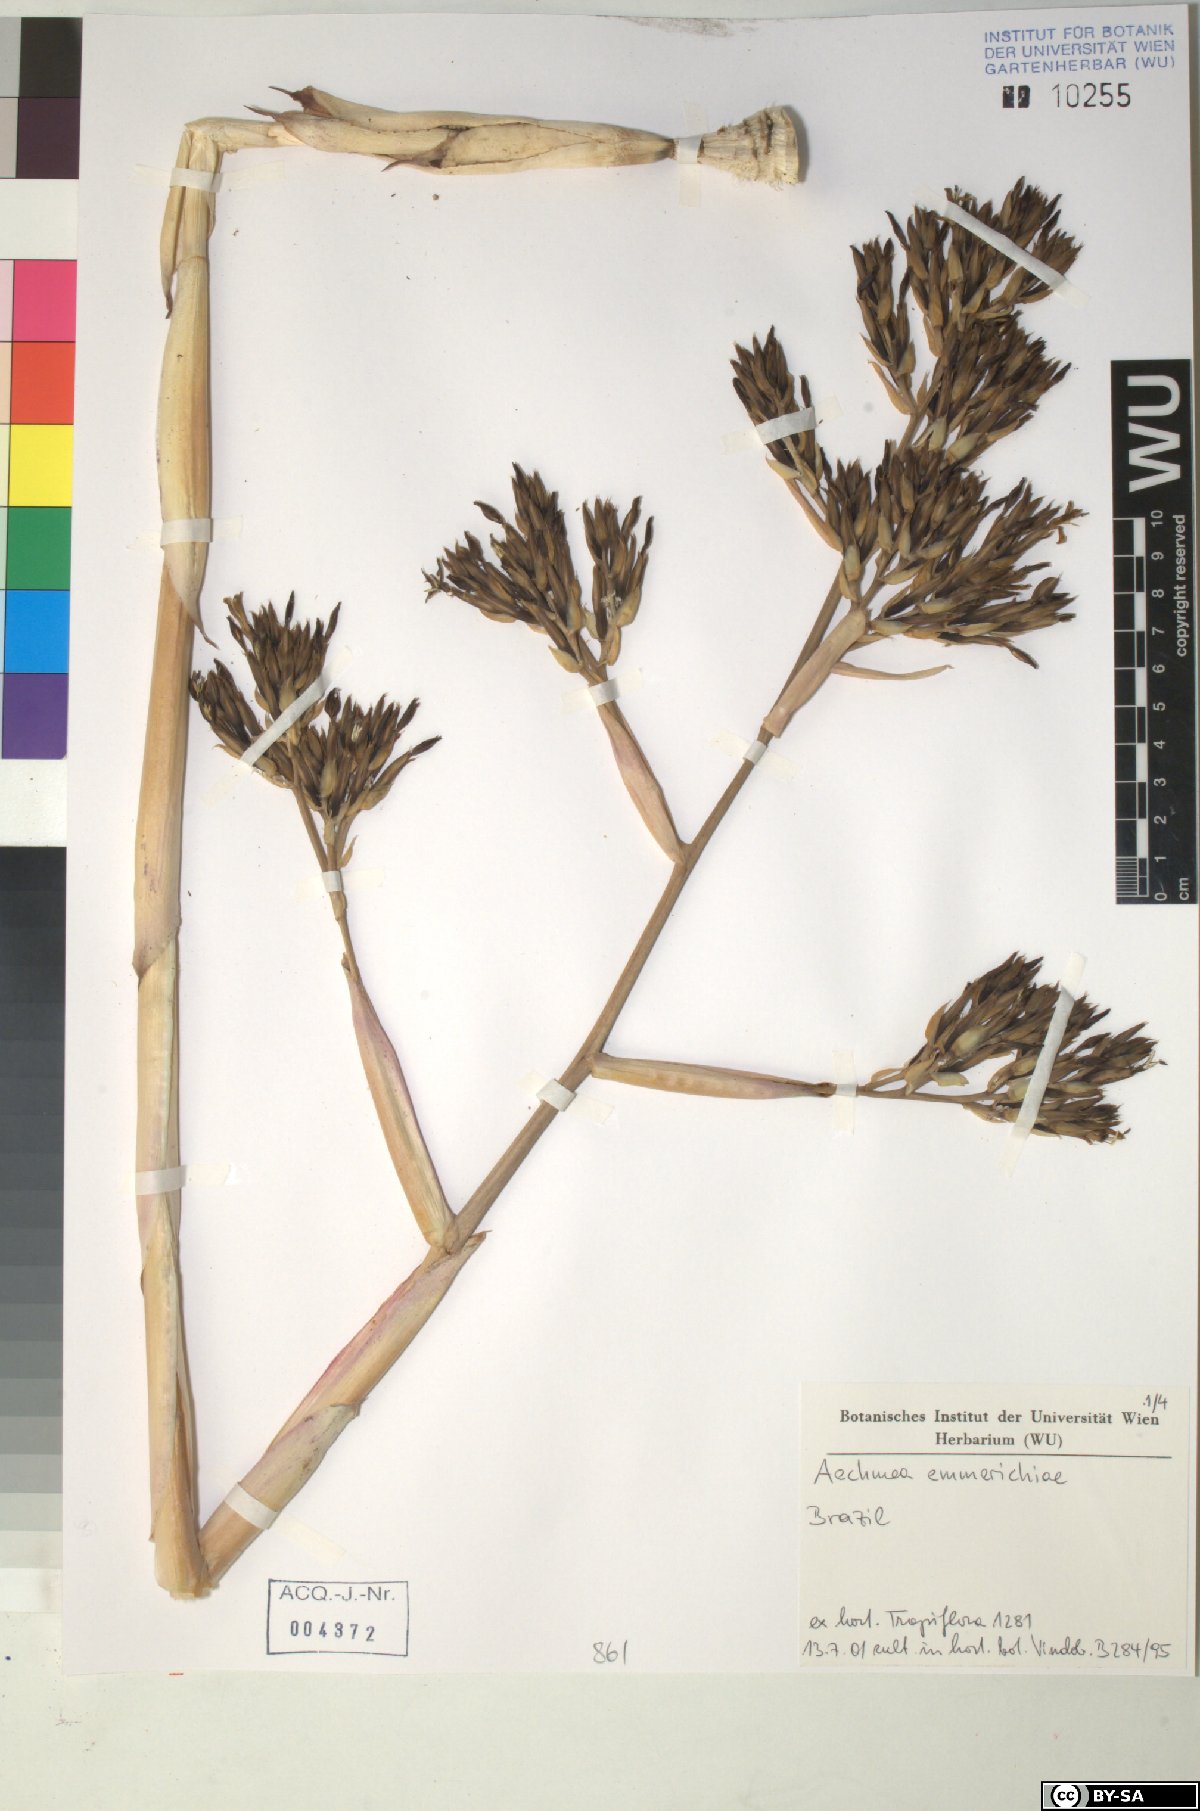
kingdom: Plantae
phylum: Tracheophyta
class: Liliopsida
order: Poales
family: Bromeliaceae
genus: Aechmea
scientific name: Aechmea emmerichiae
